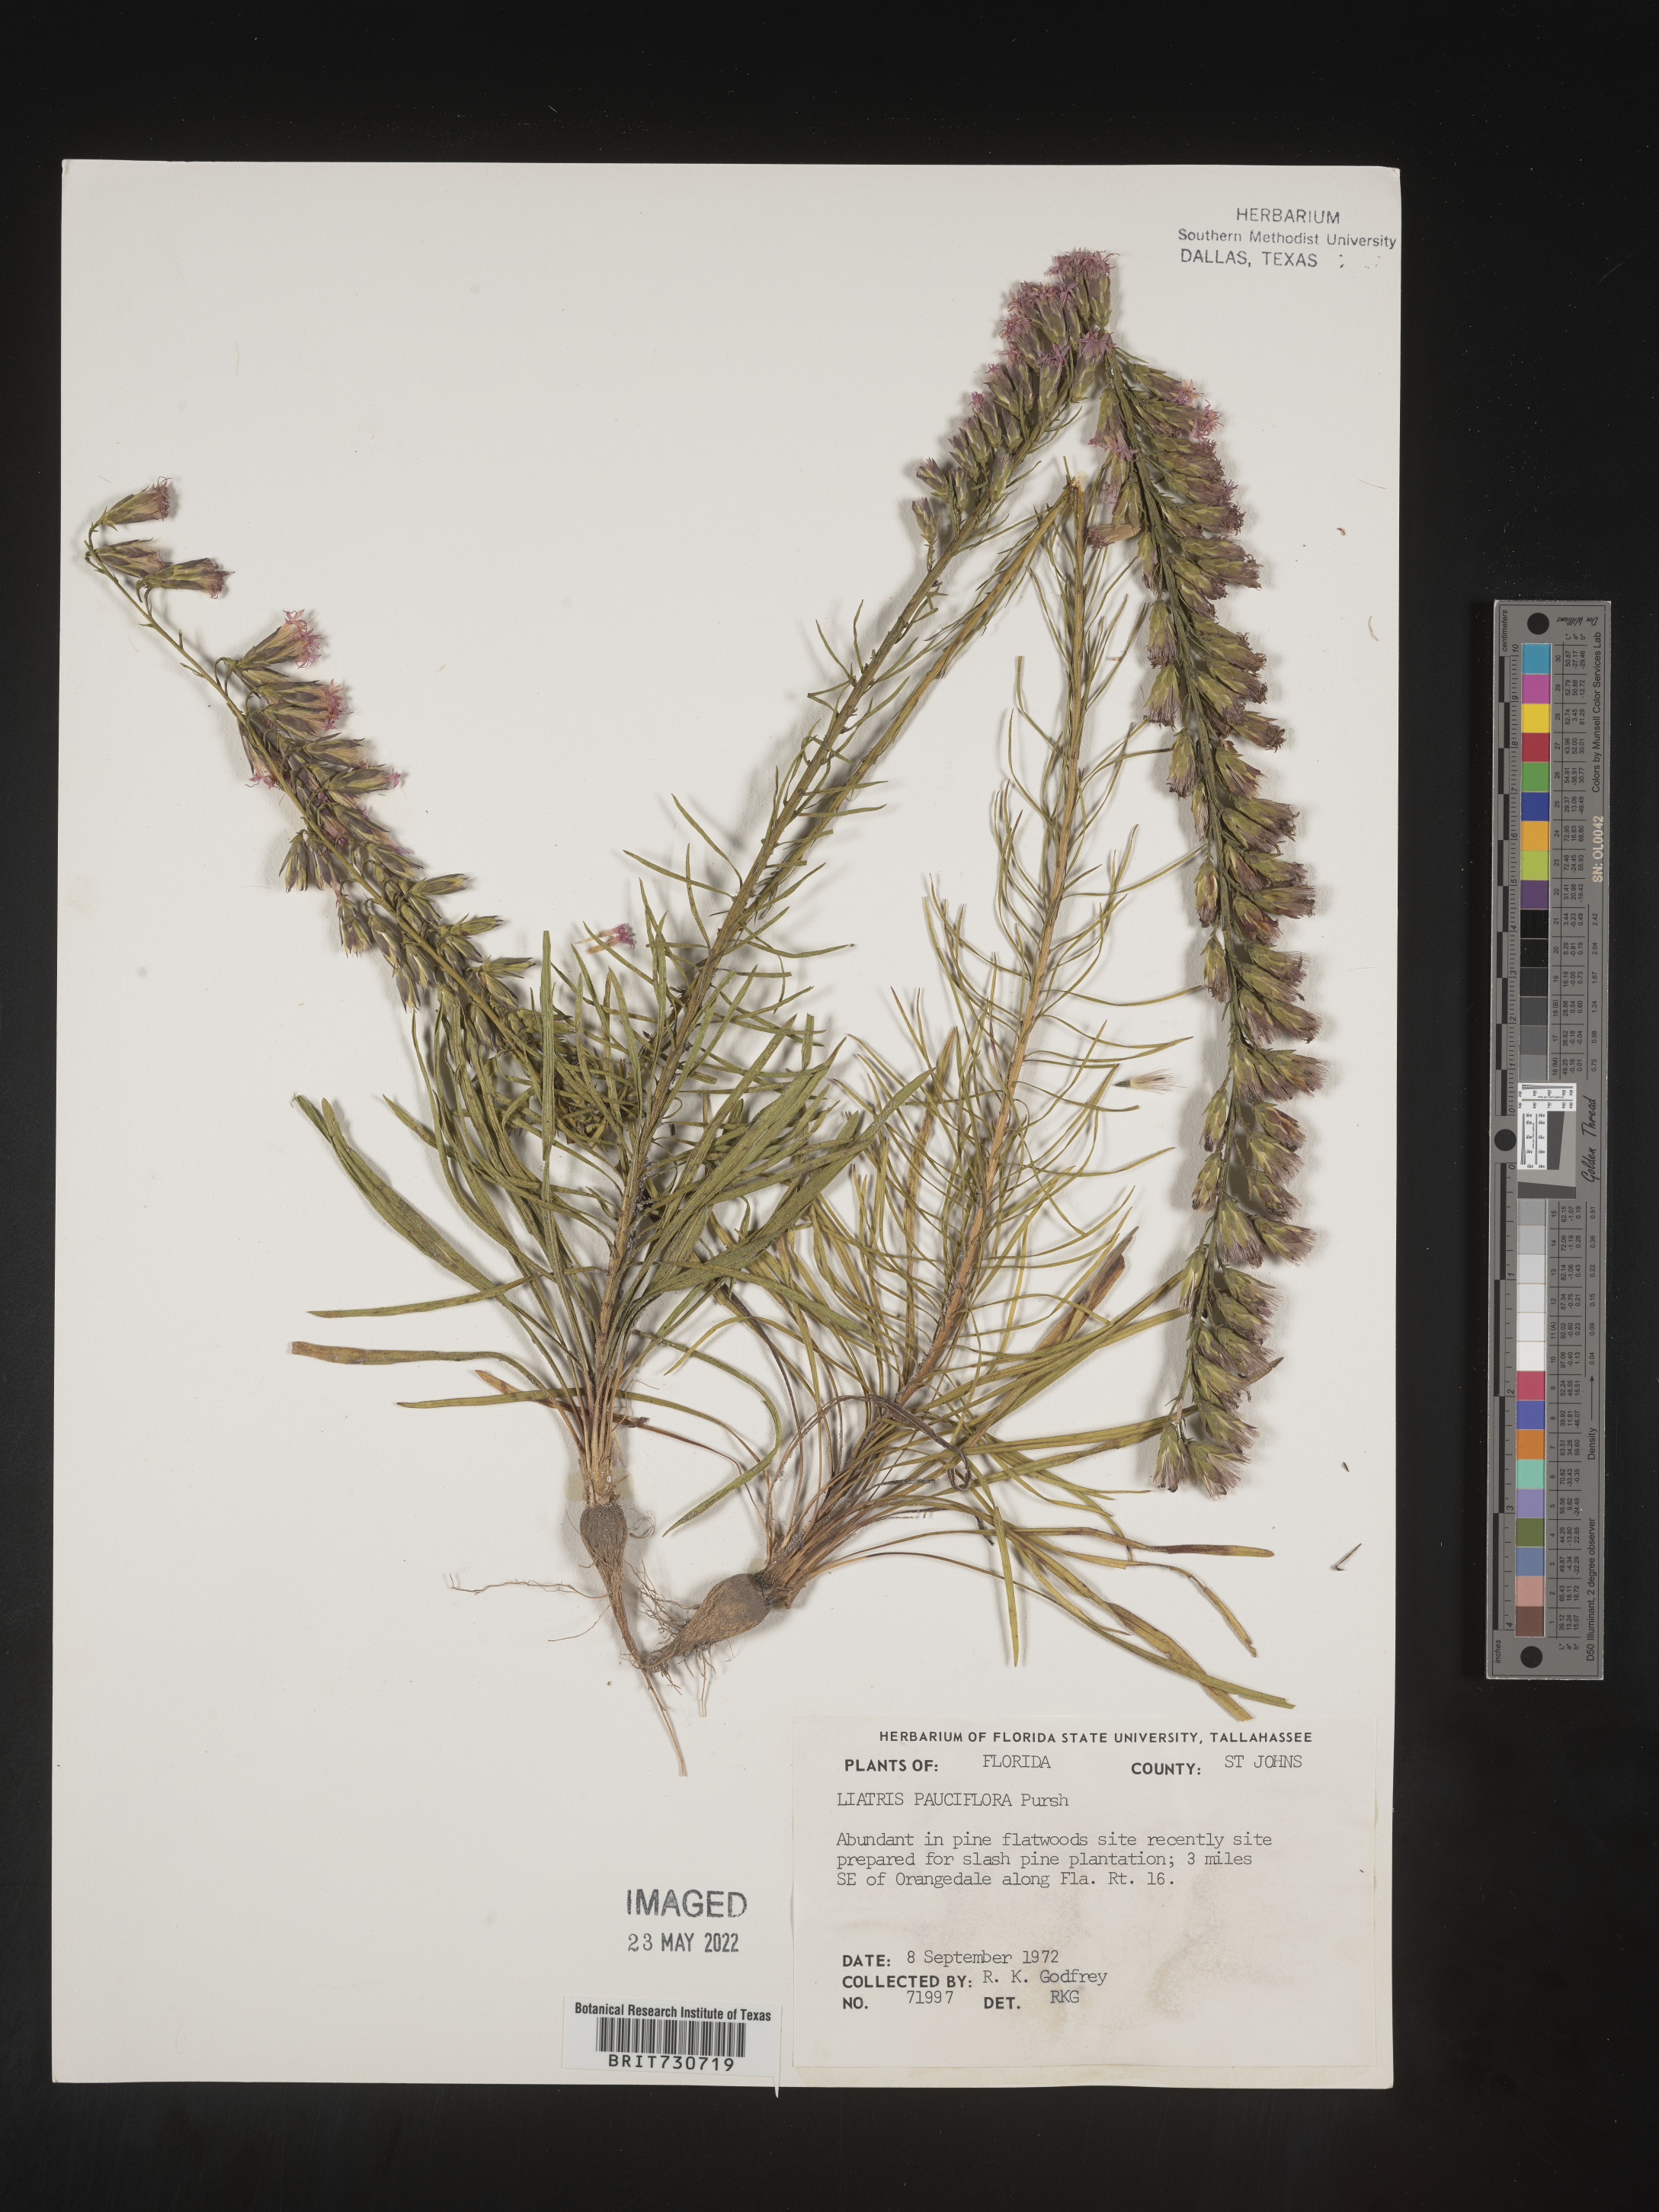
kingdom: Plantae
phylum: Tracheophyta
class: Magnoliopsida
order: Asterales
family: Asteraceae
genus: Liatris
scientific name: Liatris pauciflora
